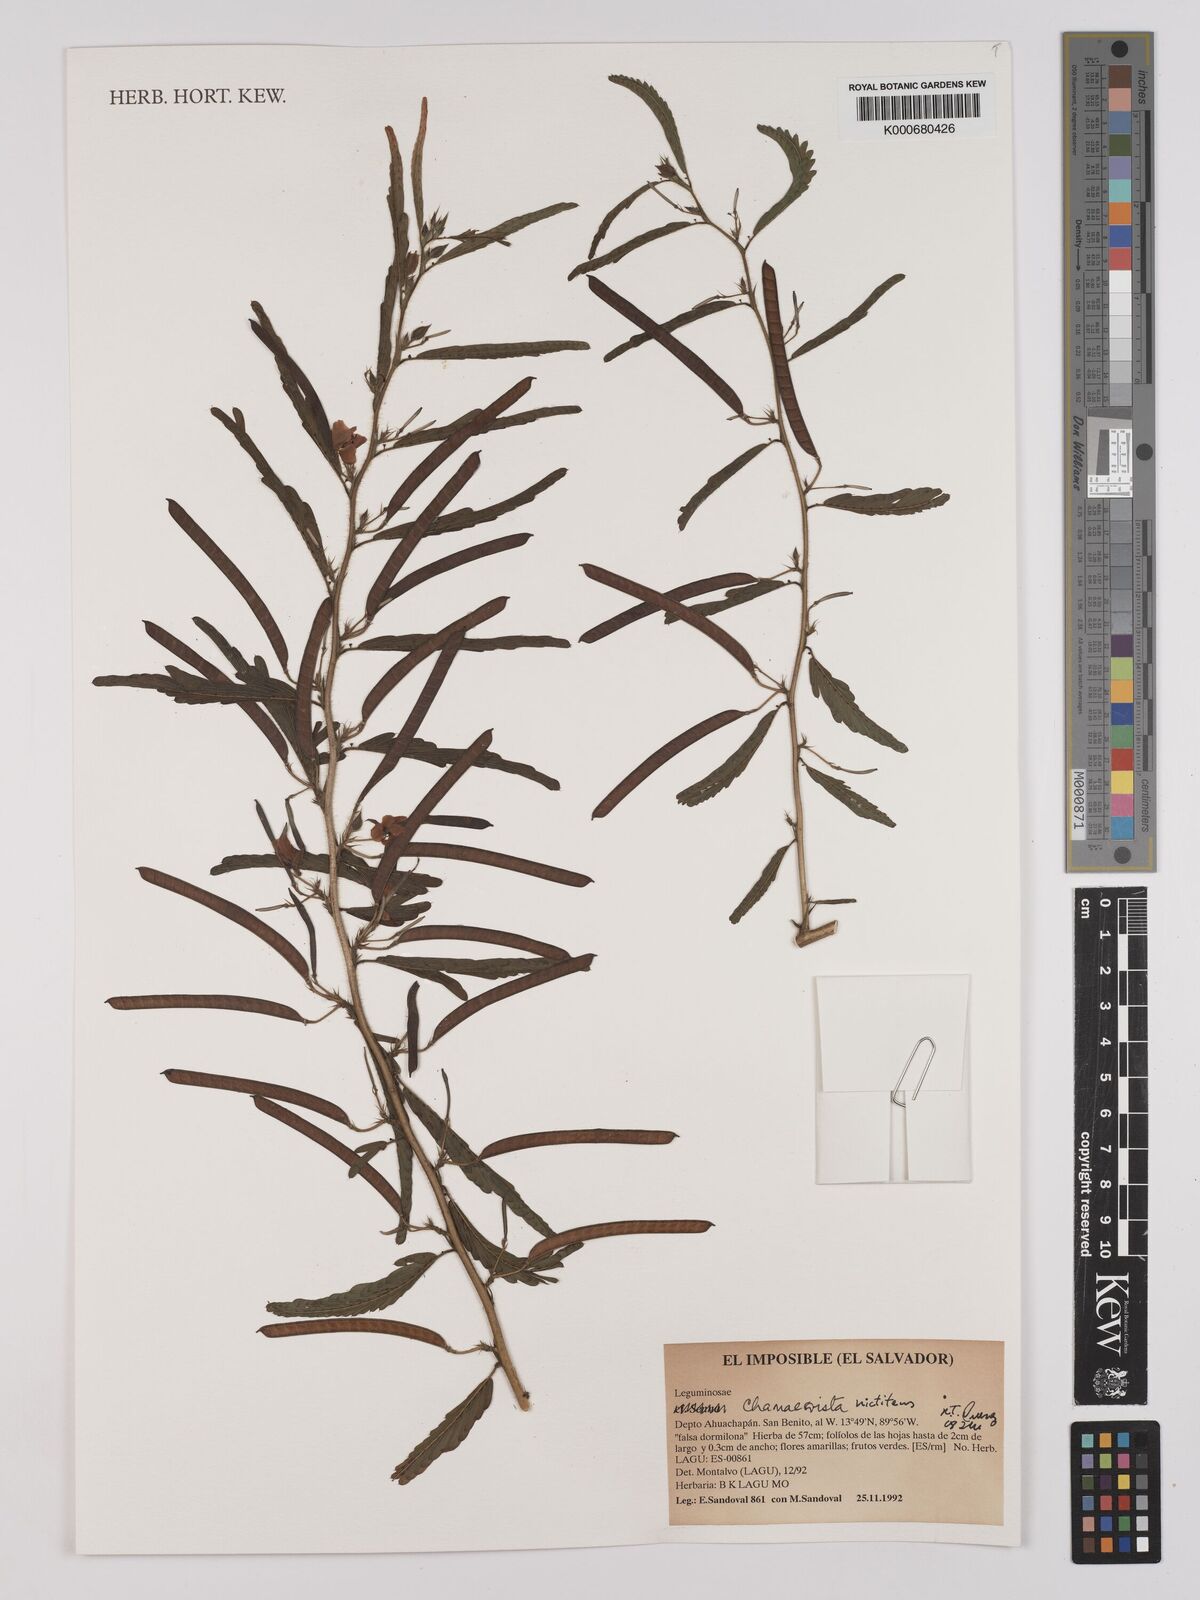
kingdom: Plantae
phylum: Tracheophyta
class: Magnoliopsida
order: Fabales
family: Fabaceae
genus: Chamaecrista
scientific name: Chamaecrista
